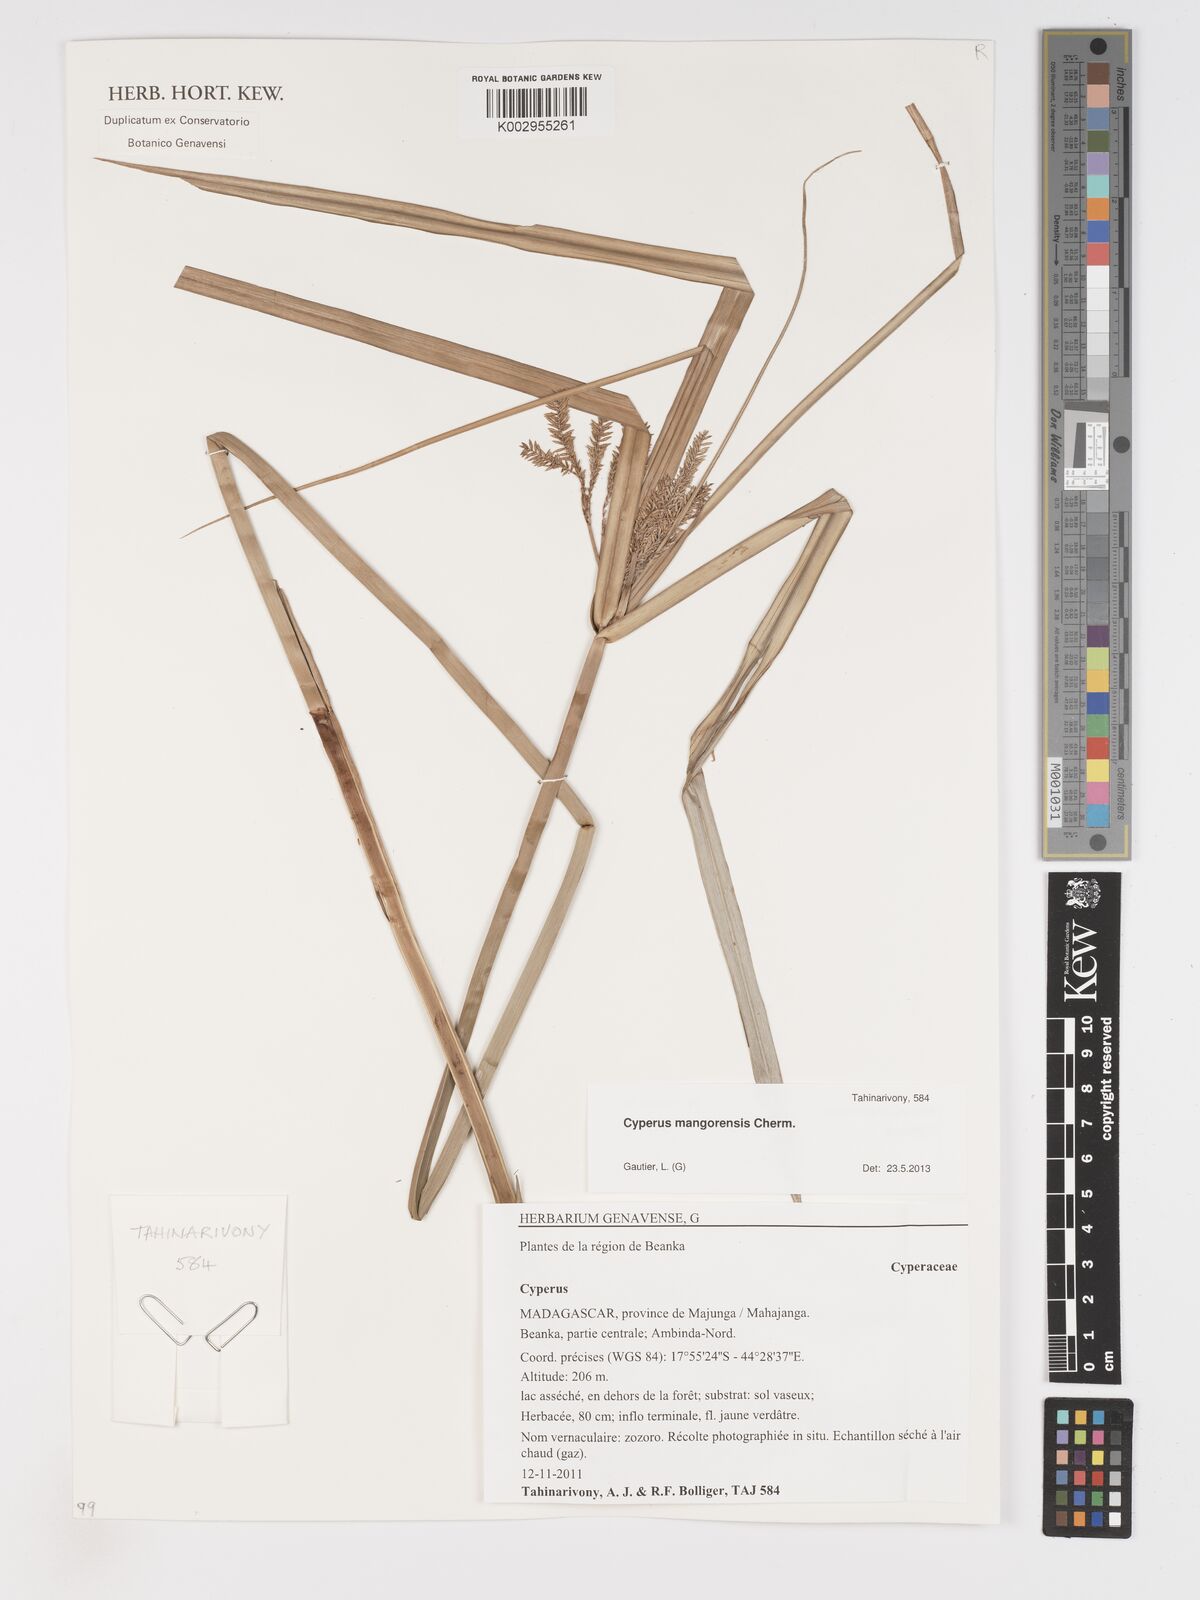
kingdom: Plantae
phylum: Tracheophyta
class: Liliopsida
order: Poales
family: Cyperaceae
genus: Cyperus
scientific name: Cyperus mangorensis
